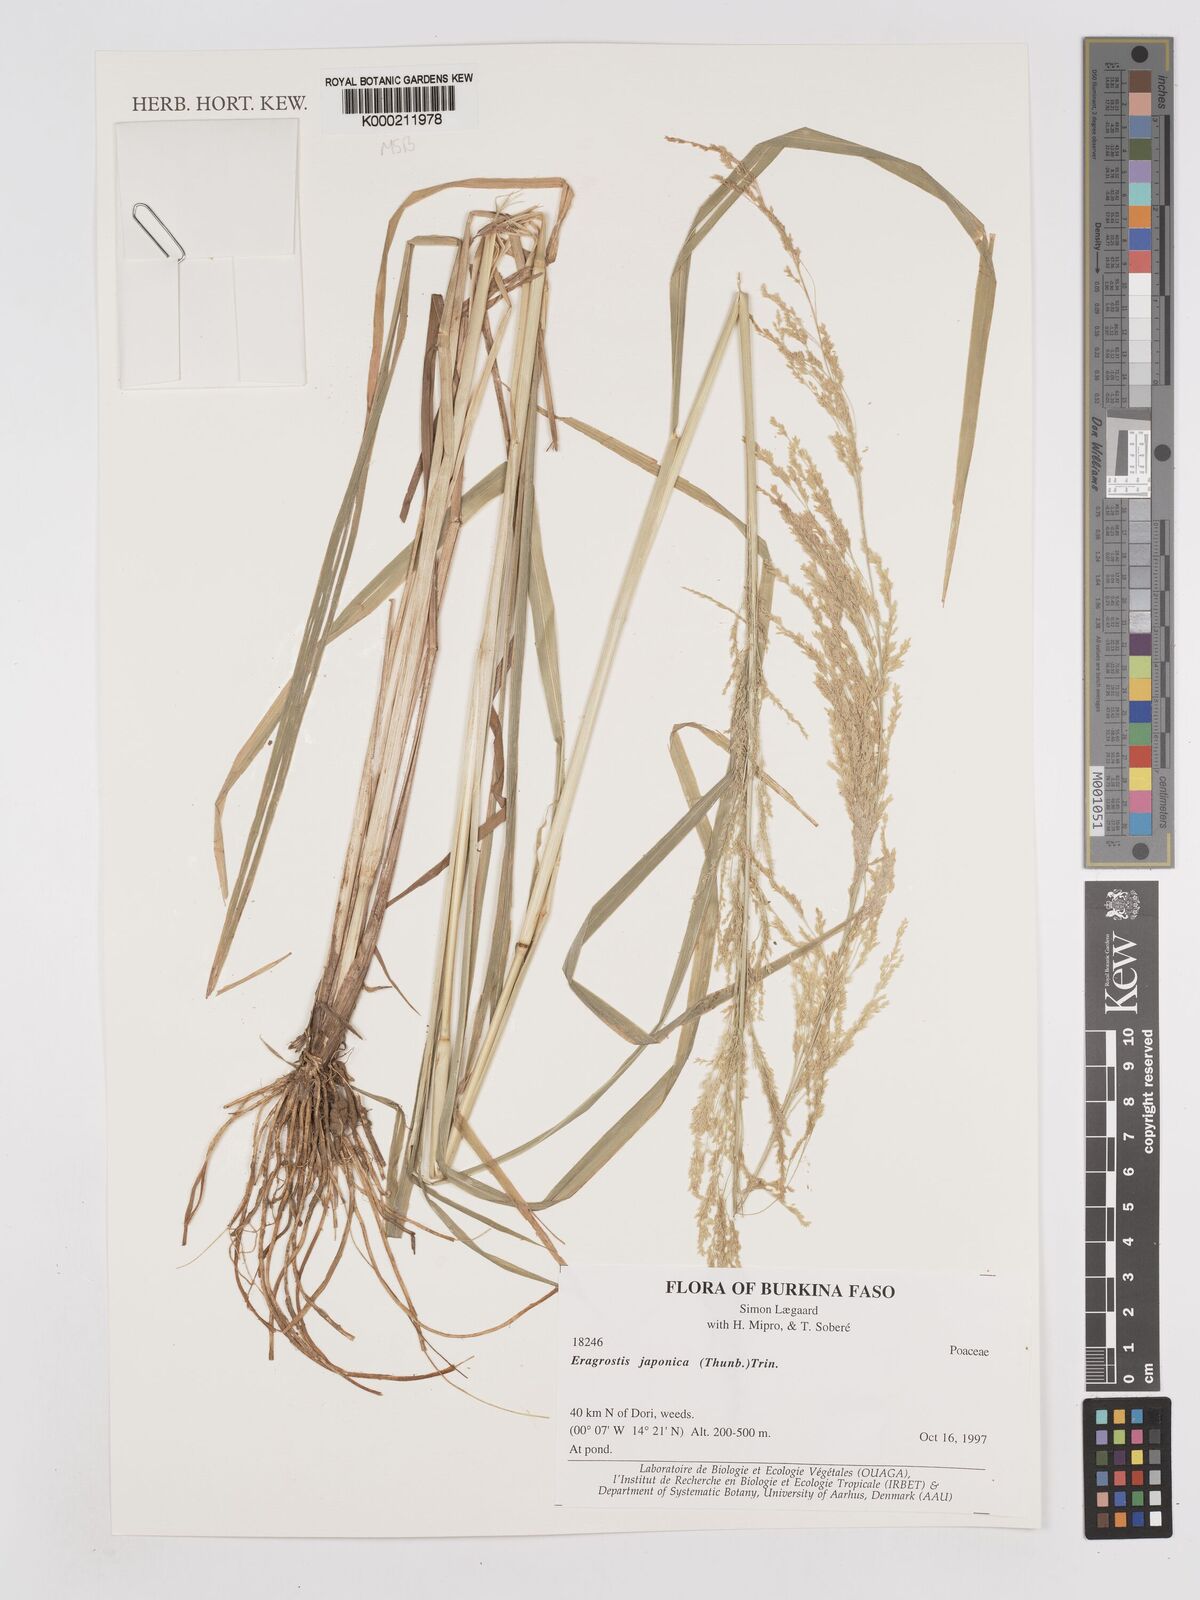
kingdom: Plantae
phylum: Tracheophyta
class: Liliopsida
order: Poales
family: Poaceae
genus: Eragrostis
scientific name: Eragrostis japonica
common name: Pond lovegrass
